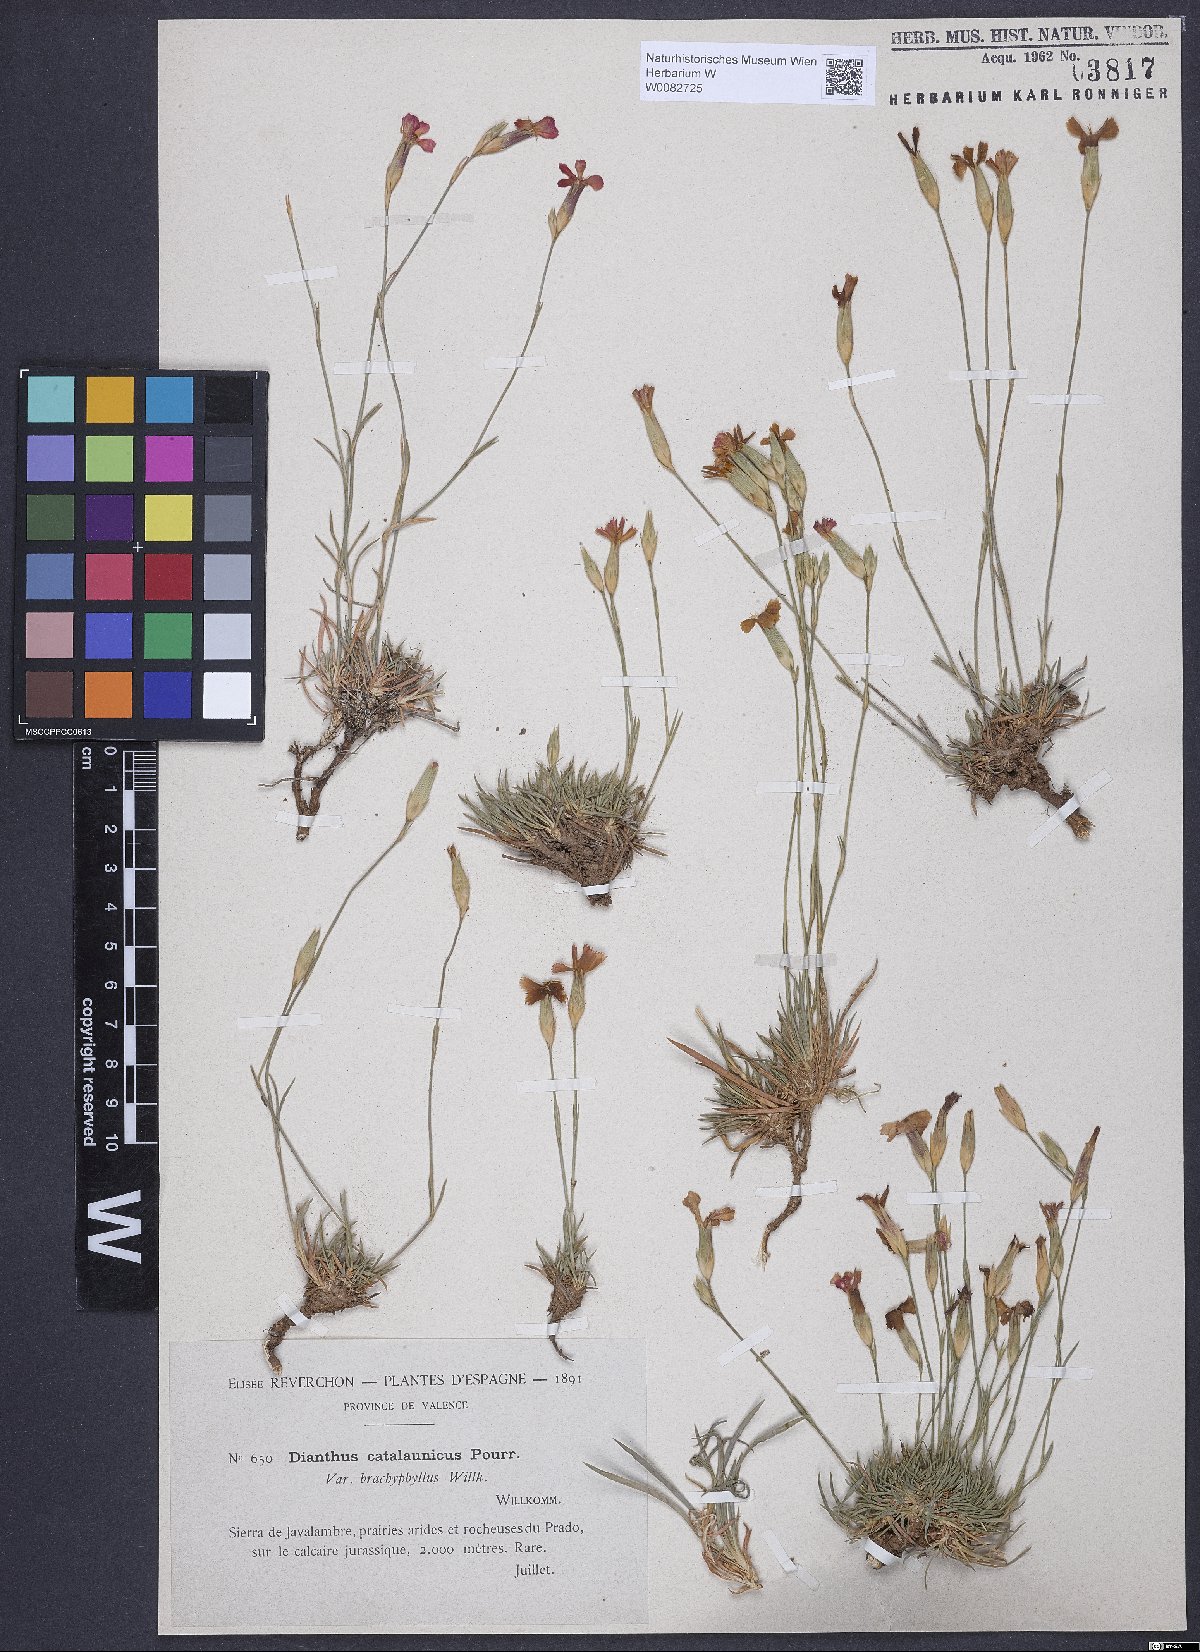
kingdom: Plantae
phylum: Tracheophyta
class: Magnoliopsida
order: Caryophyllales
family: Caryophyllaceae
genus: Dianthus
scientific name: Dianthus pyrenaicus
